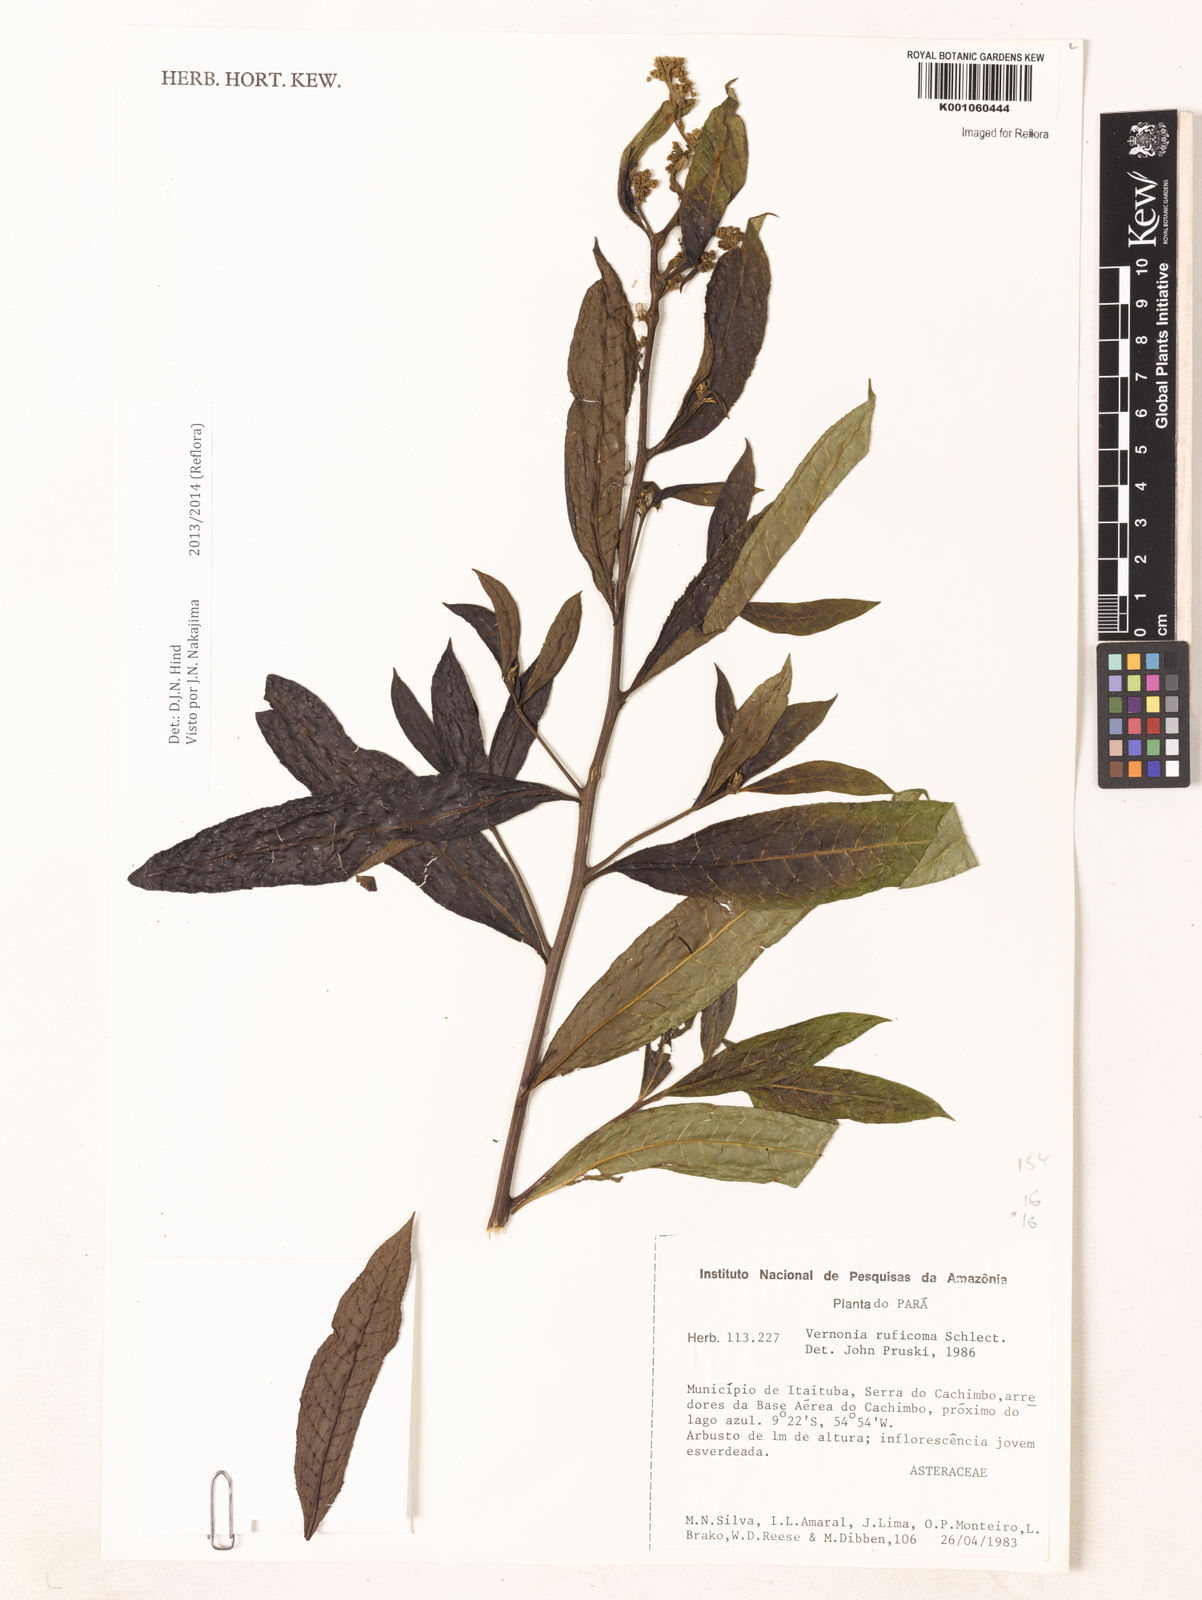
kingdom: Plantae
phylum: Tracheophyta
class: Magnoliopsida
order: Asterales
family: Asteraceae
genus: Vernonia
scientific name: Vernonia
